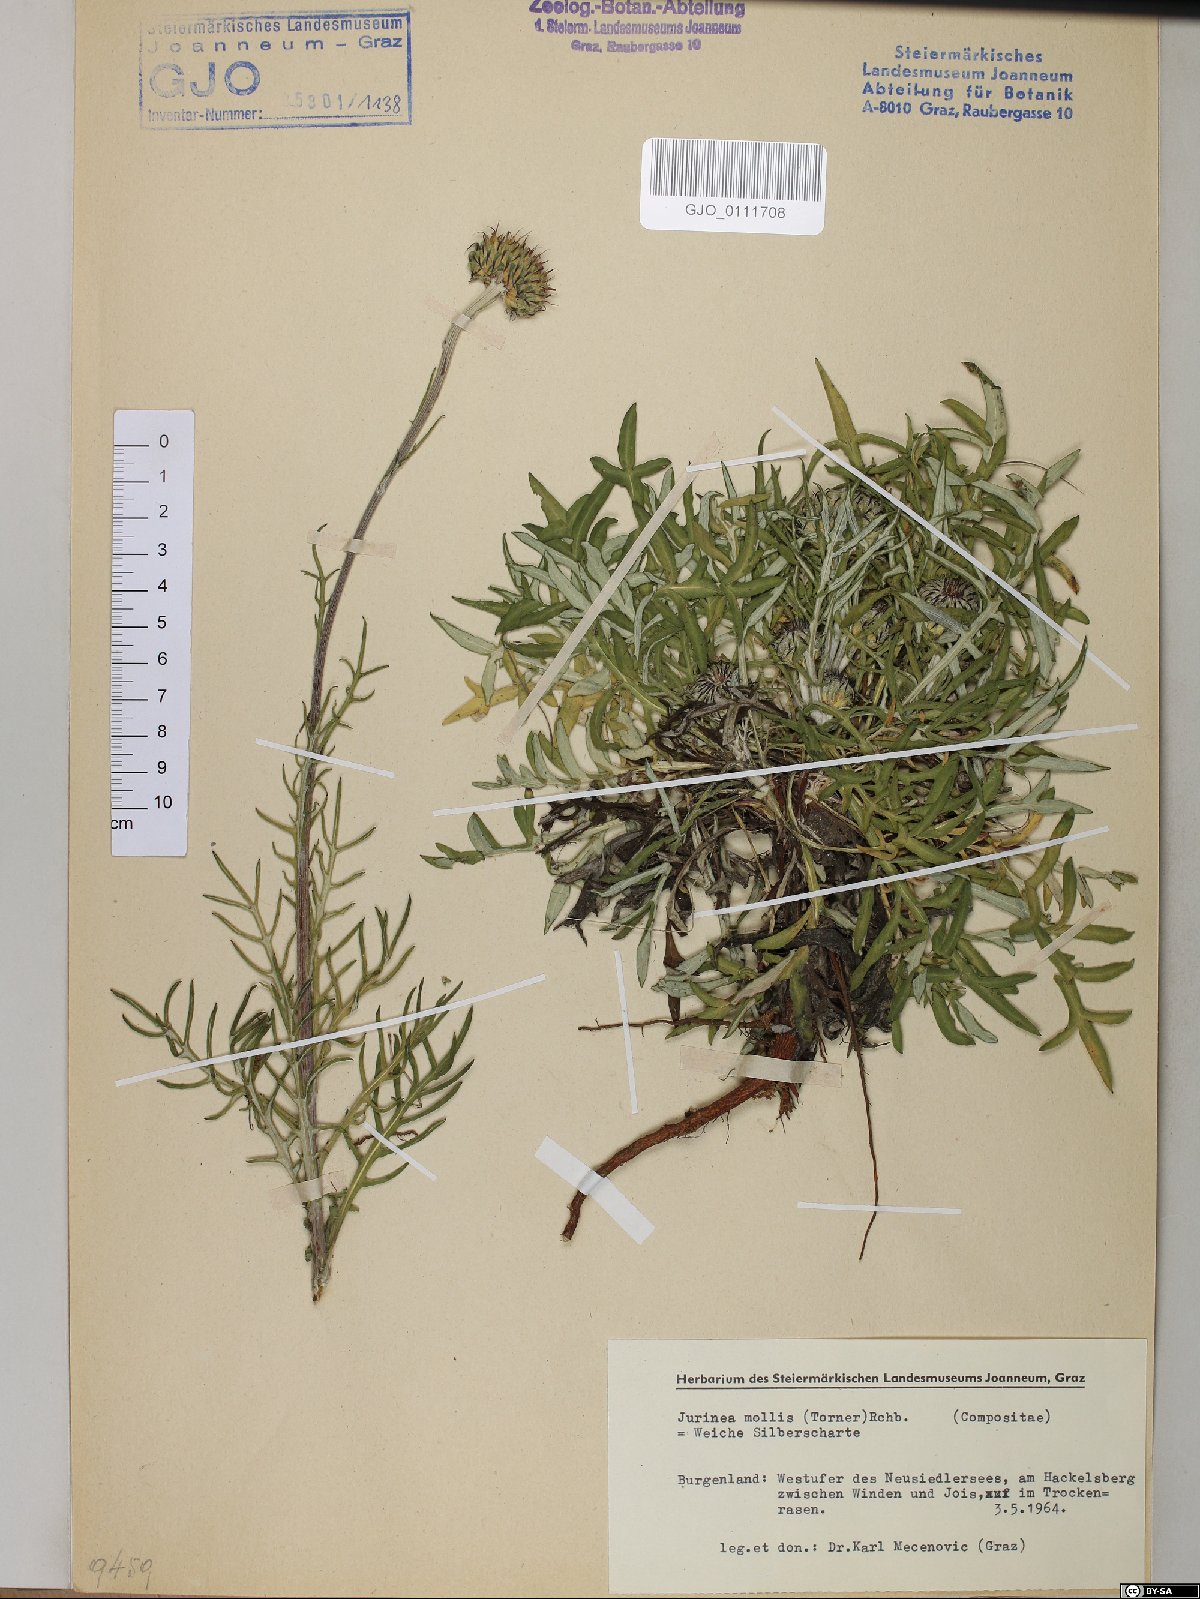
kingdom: Plantae
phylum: Tracheophyta
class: Magnoliopsida
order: Asterales
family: Asteraceae
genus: Jurinea
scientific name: Jurinea mollis
